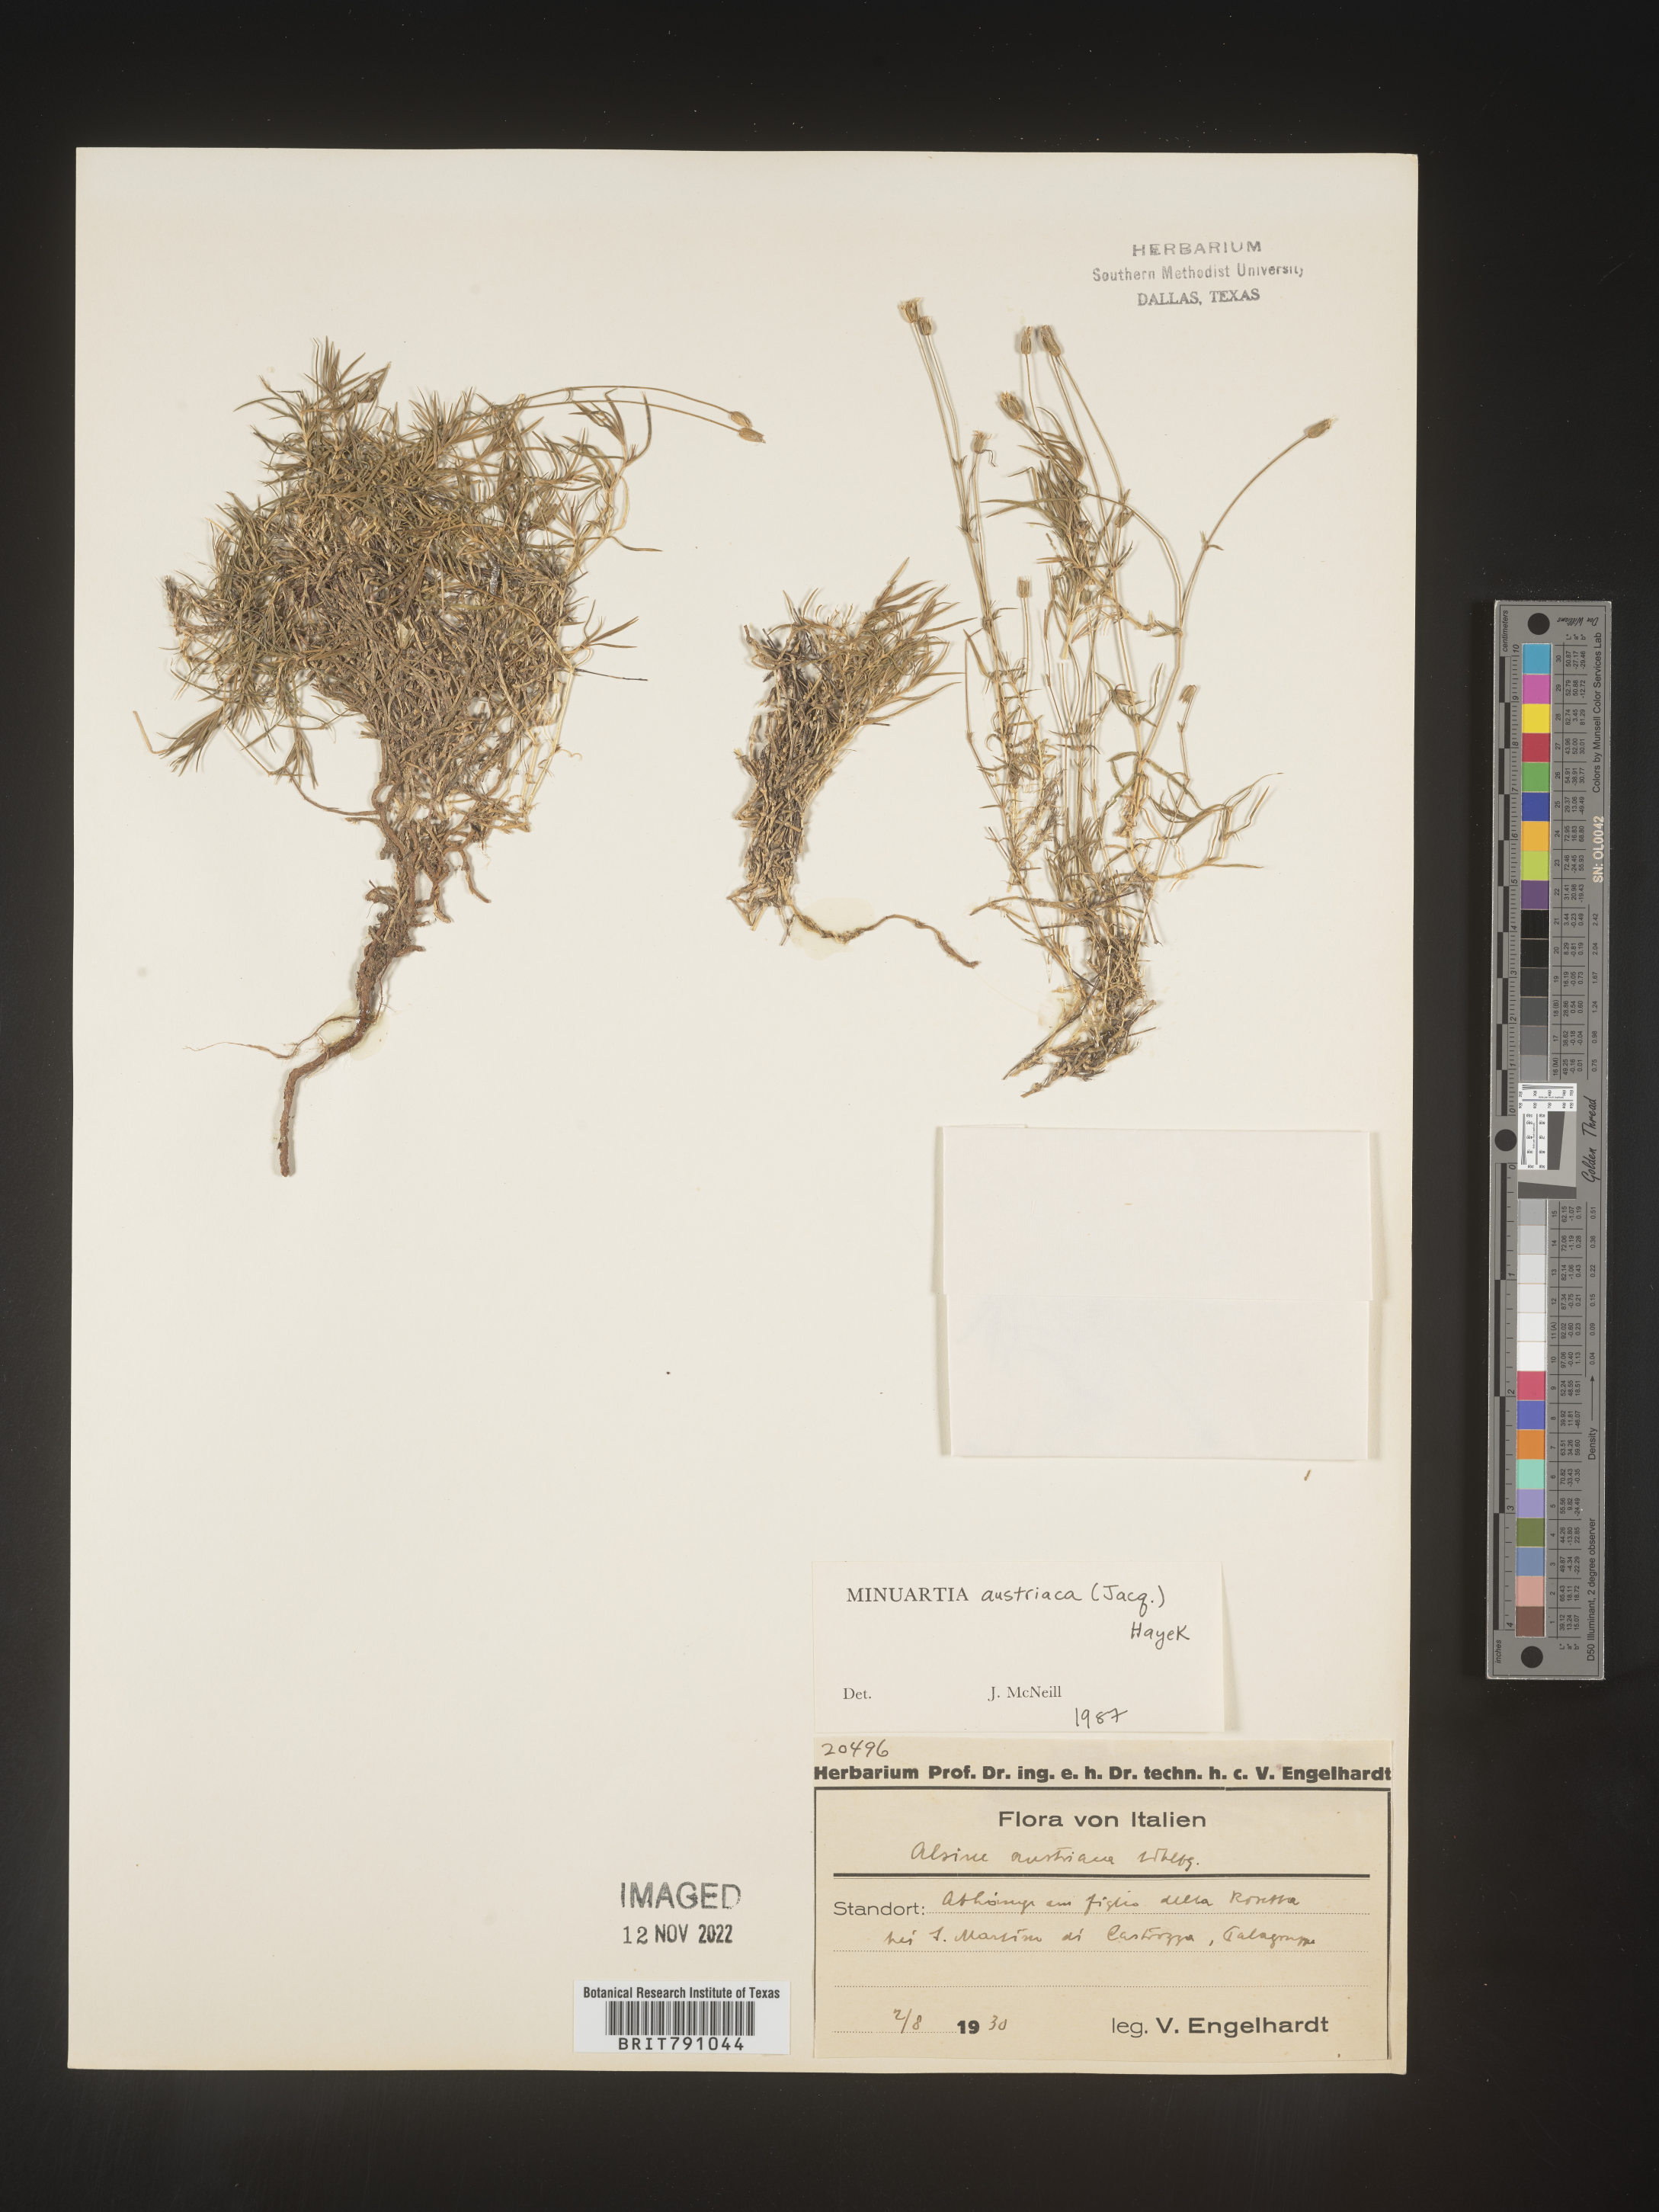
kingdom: Plantae
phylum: Tracheophyta
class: Magnoliopsida
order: Caryophyllales
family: Caryophyllaceae
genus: Minuartia
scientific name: Minuartia
